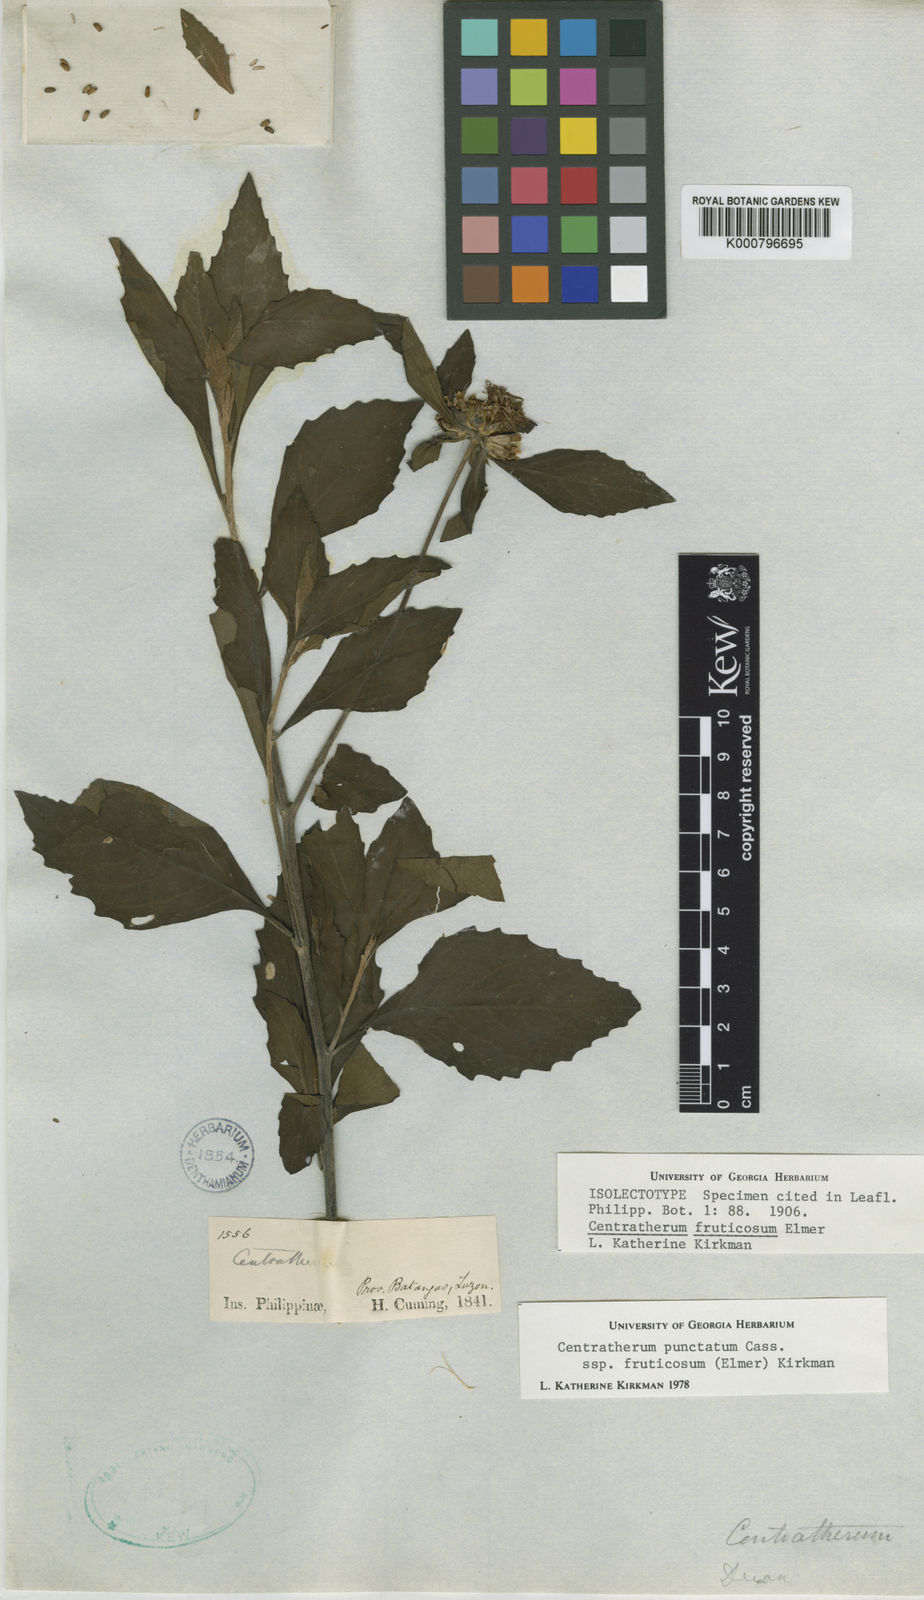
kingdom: Plantae
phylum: Tracheophyta
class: Magnoliopsida
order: Asterales
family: Asteraceae
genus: Centratherum
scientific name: Centratherum punctatum
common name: Larkdaisy
